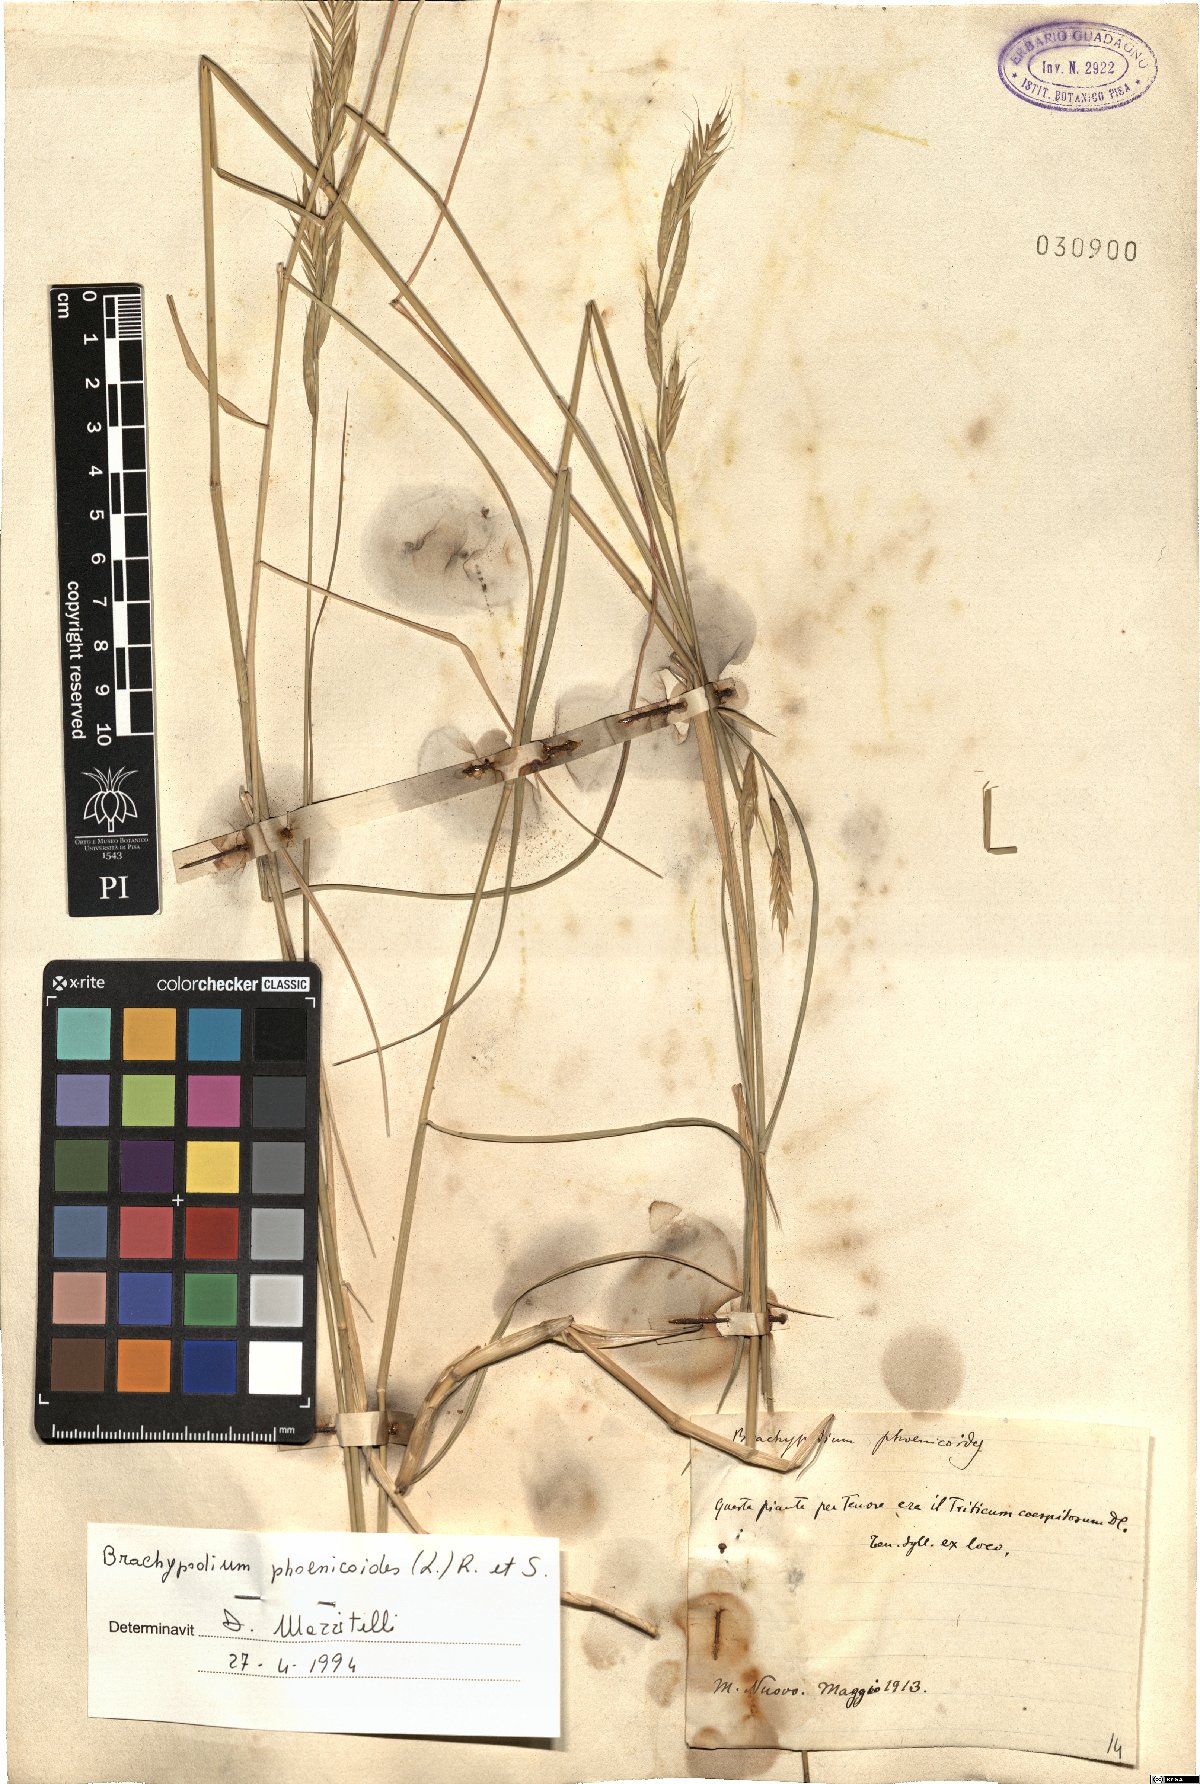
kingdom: Plantae
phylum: Tracheophyta
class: Liliopsida
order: Poales
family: Poaceae
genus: Brachypodium
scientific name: Brachypodium phoenicoides
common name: Thinleaf false brome
